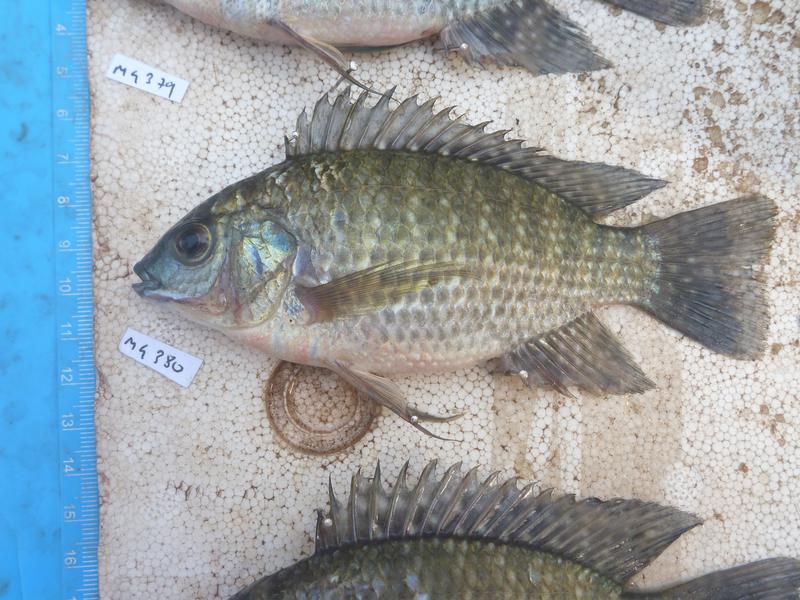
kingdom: Animalia
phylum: Chordata
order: Perciformes
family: Cichlidae
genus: Oreochromis
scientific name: Oreochromis leucostictus
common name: Blue spotted tilapia
